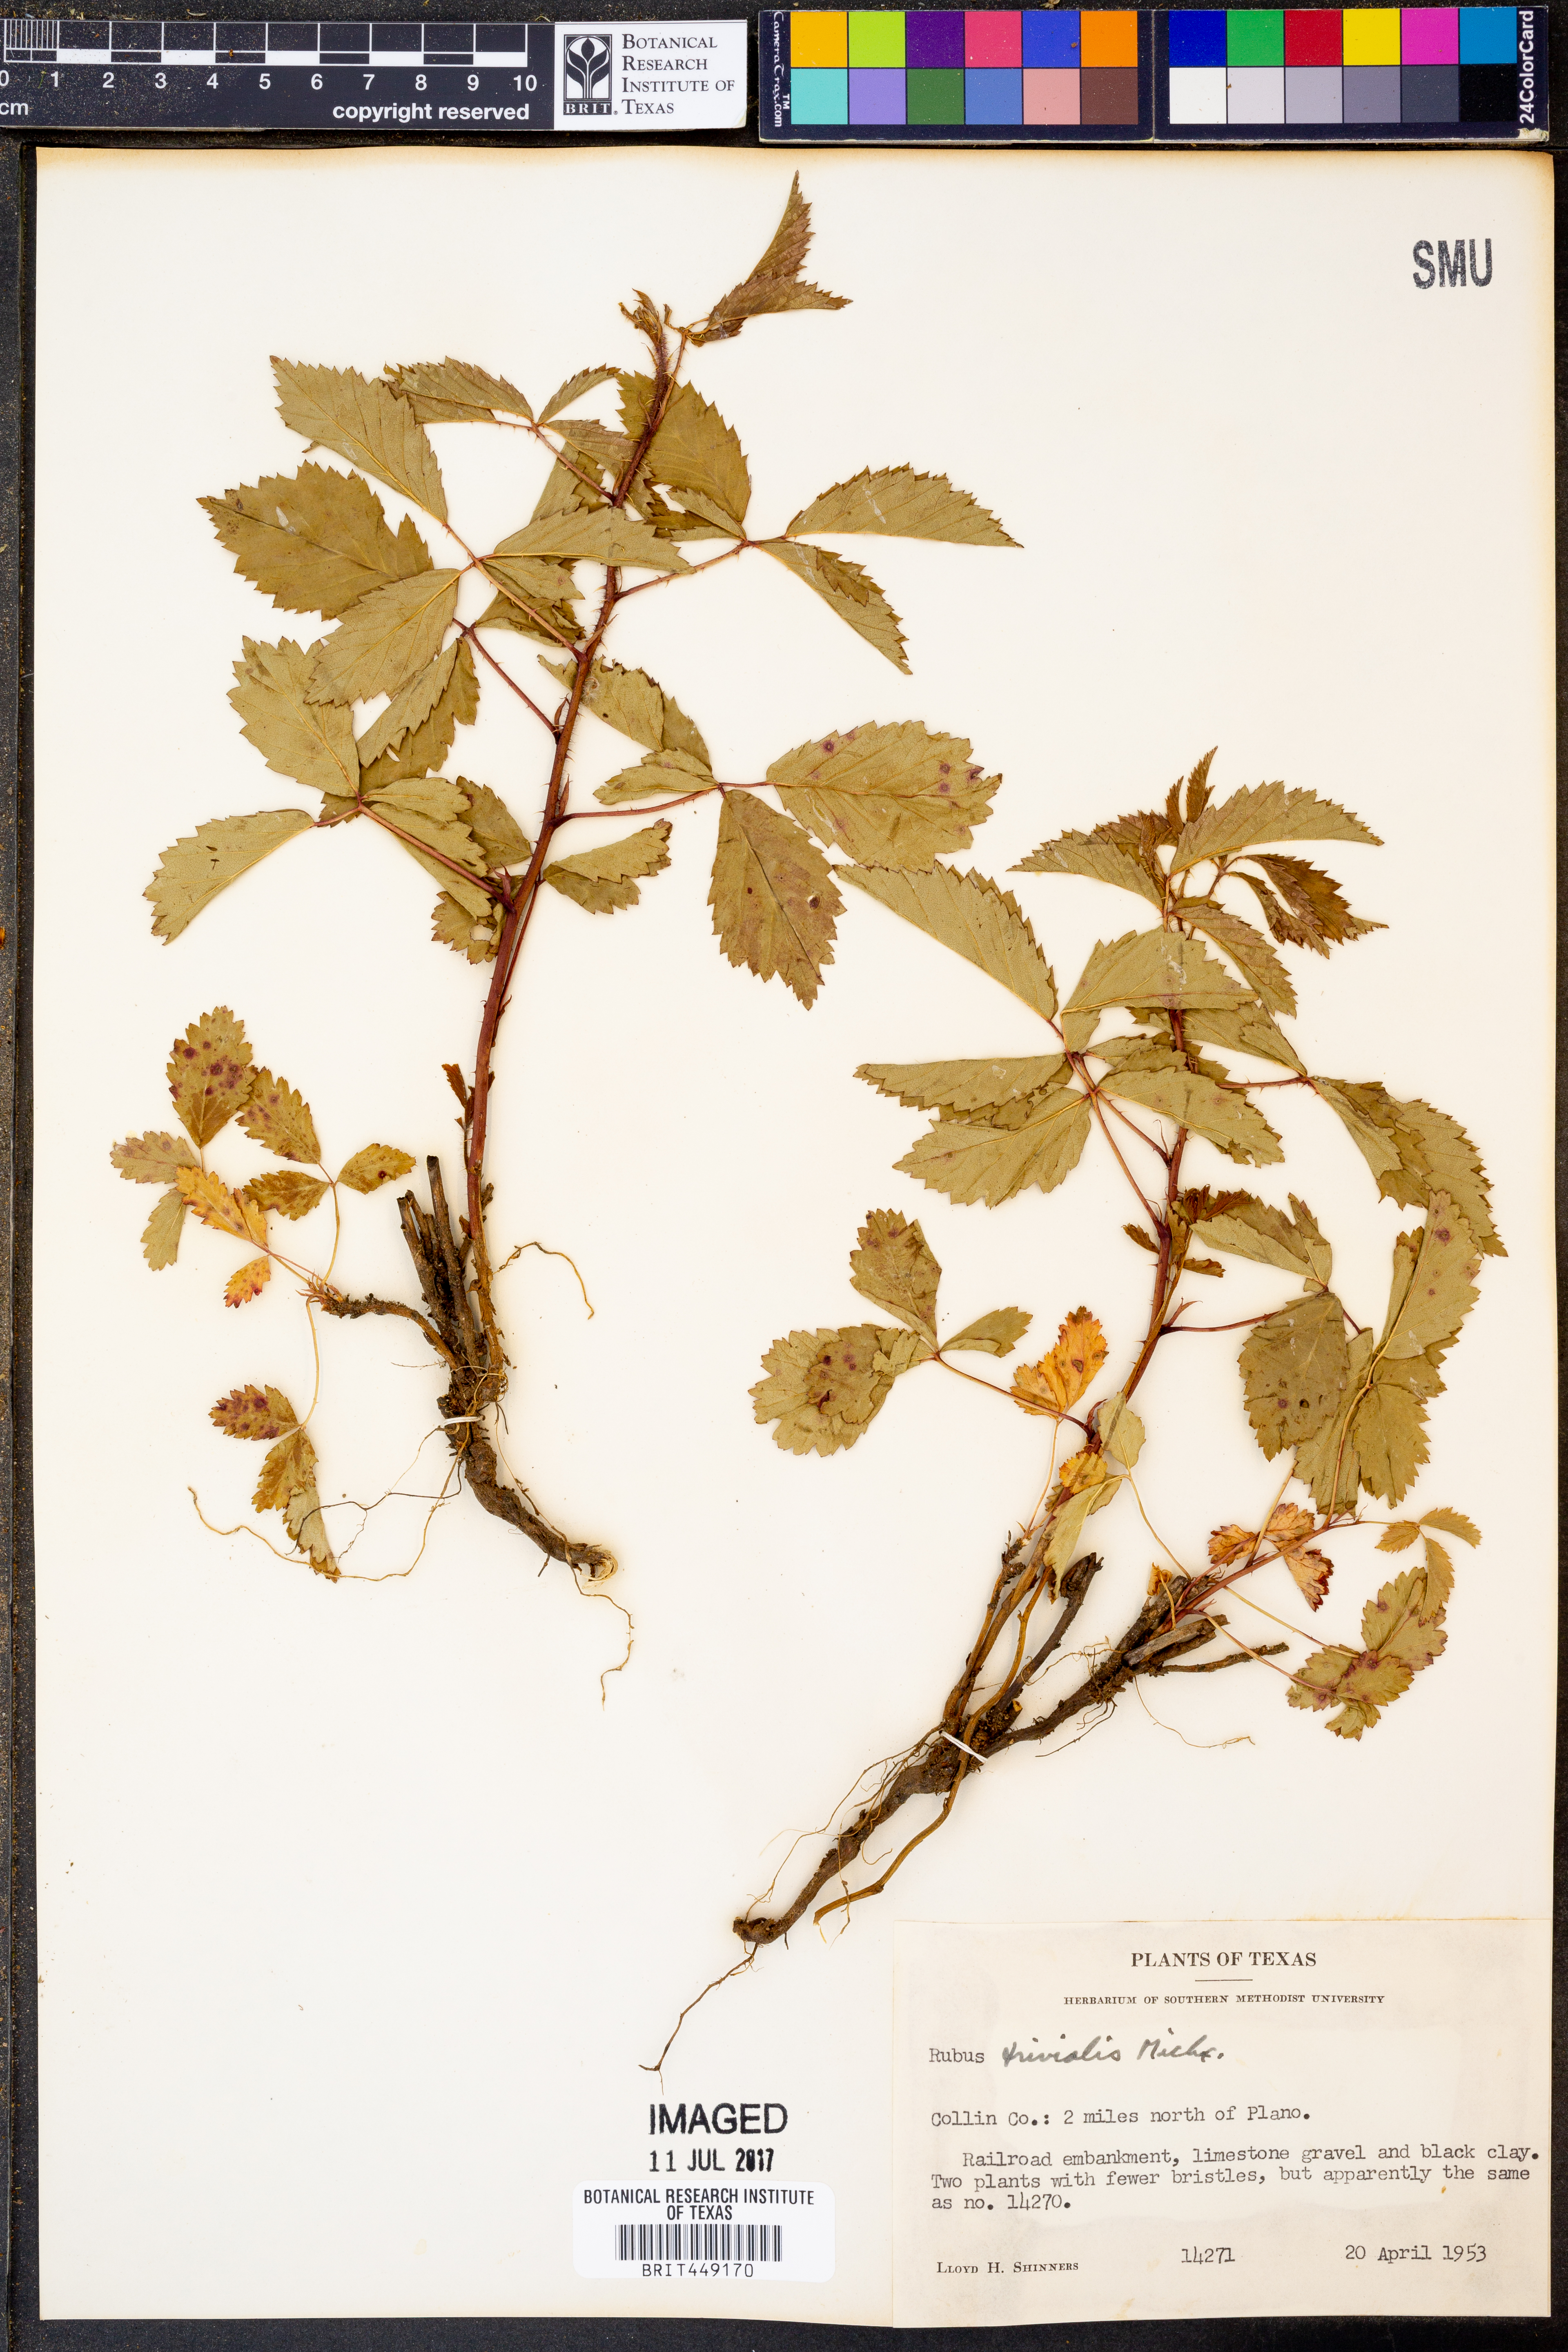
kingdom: Plantae
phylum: Tracheophyta
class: Magnoliopsida
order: Rosales
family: Rosaceae
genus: Rubus
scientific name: Rubus trivialis
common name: Southern dewberry
